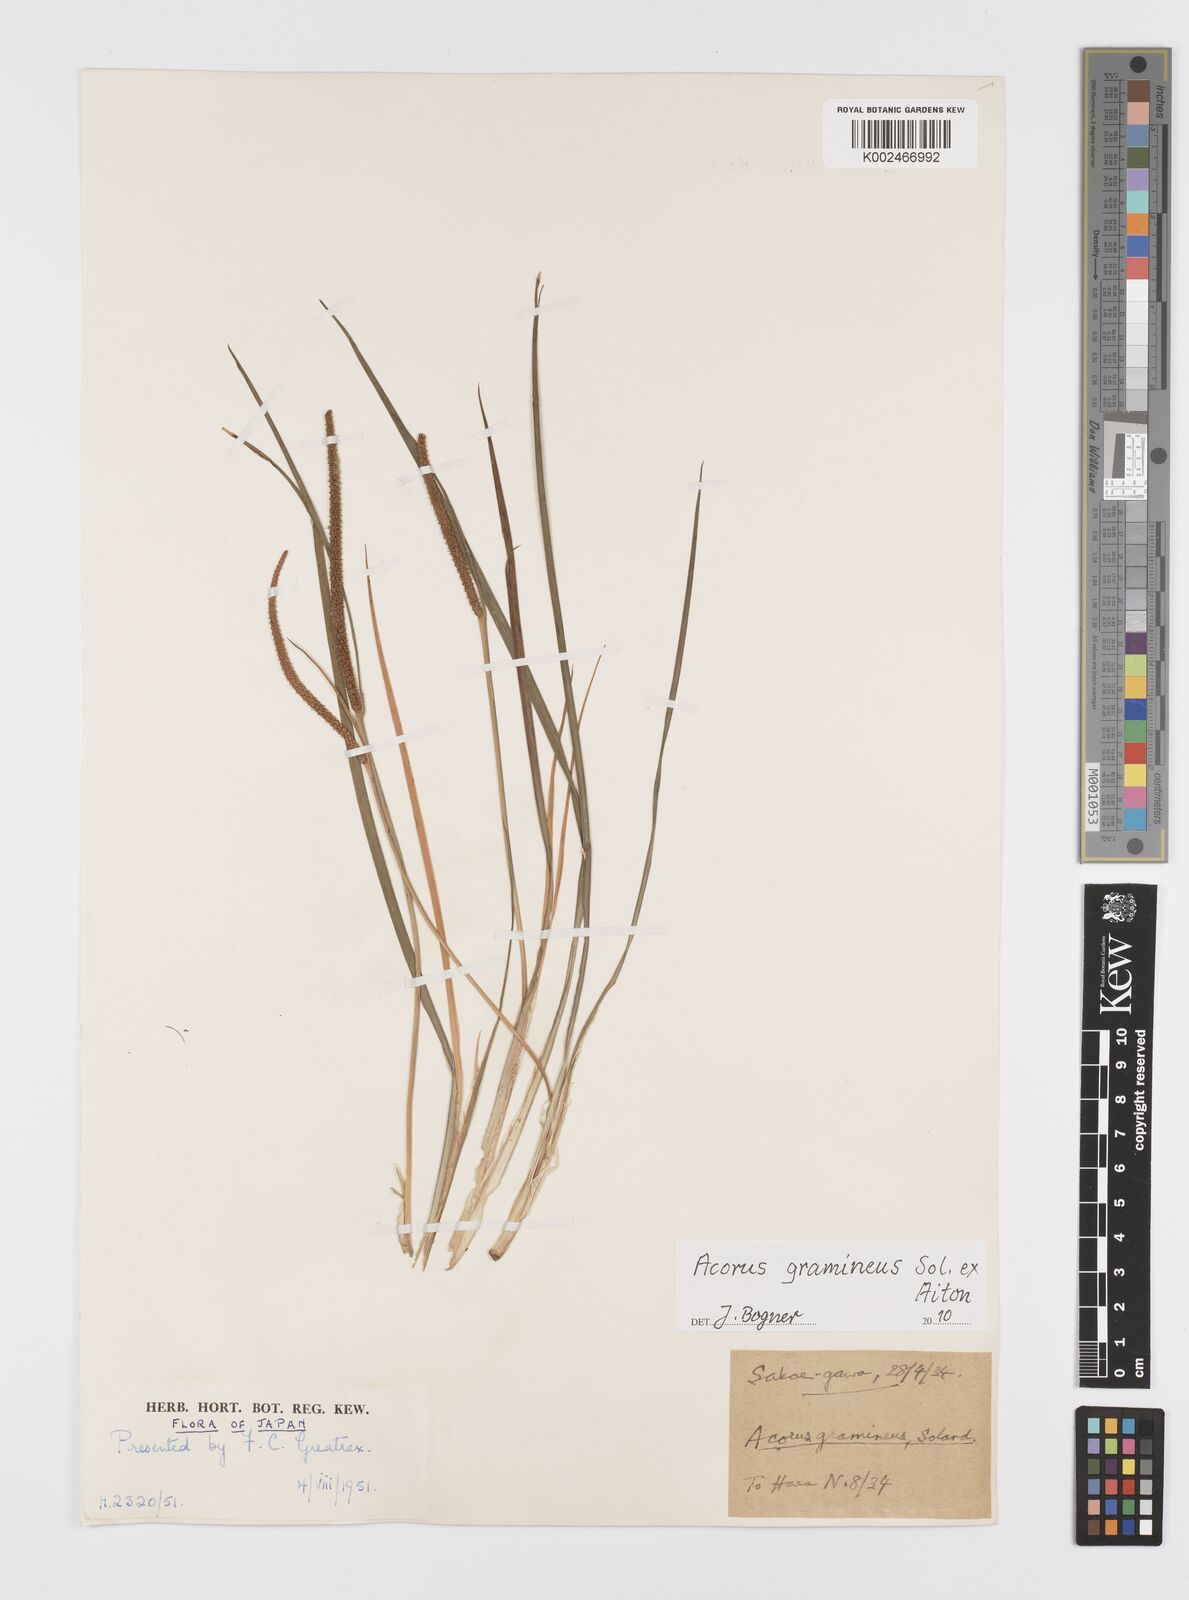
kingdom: Plantae
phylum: Tracheophyta
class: Liliopsida
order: Acorales
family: Acoraceae
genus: Acorus
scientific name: Acorus gramineus
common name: Slender sweet-flag
